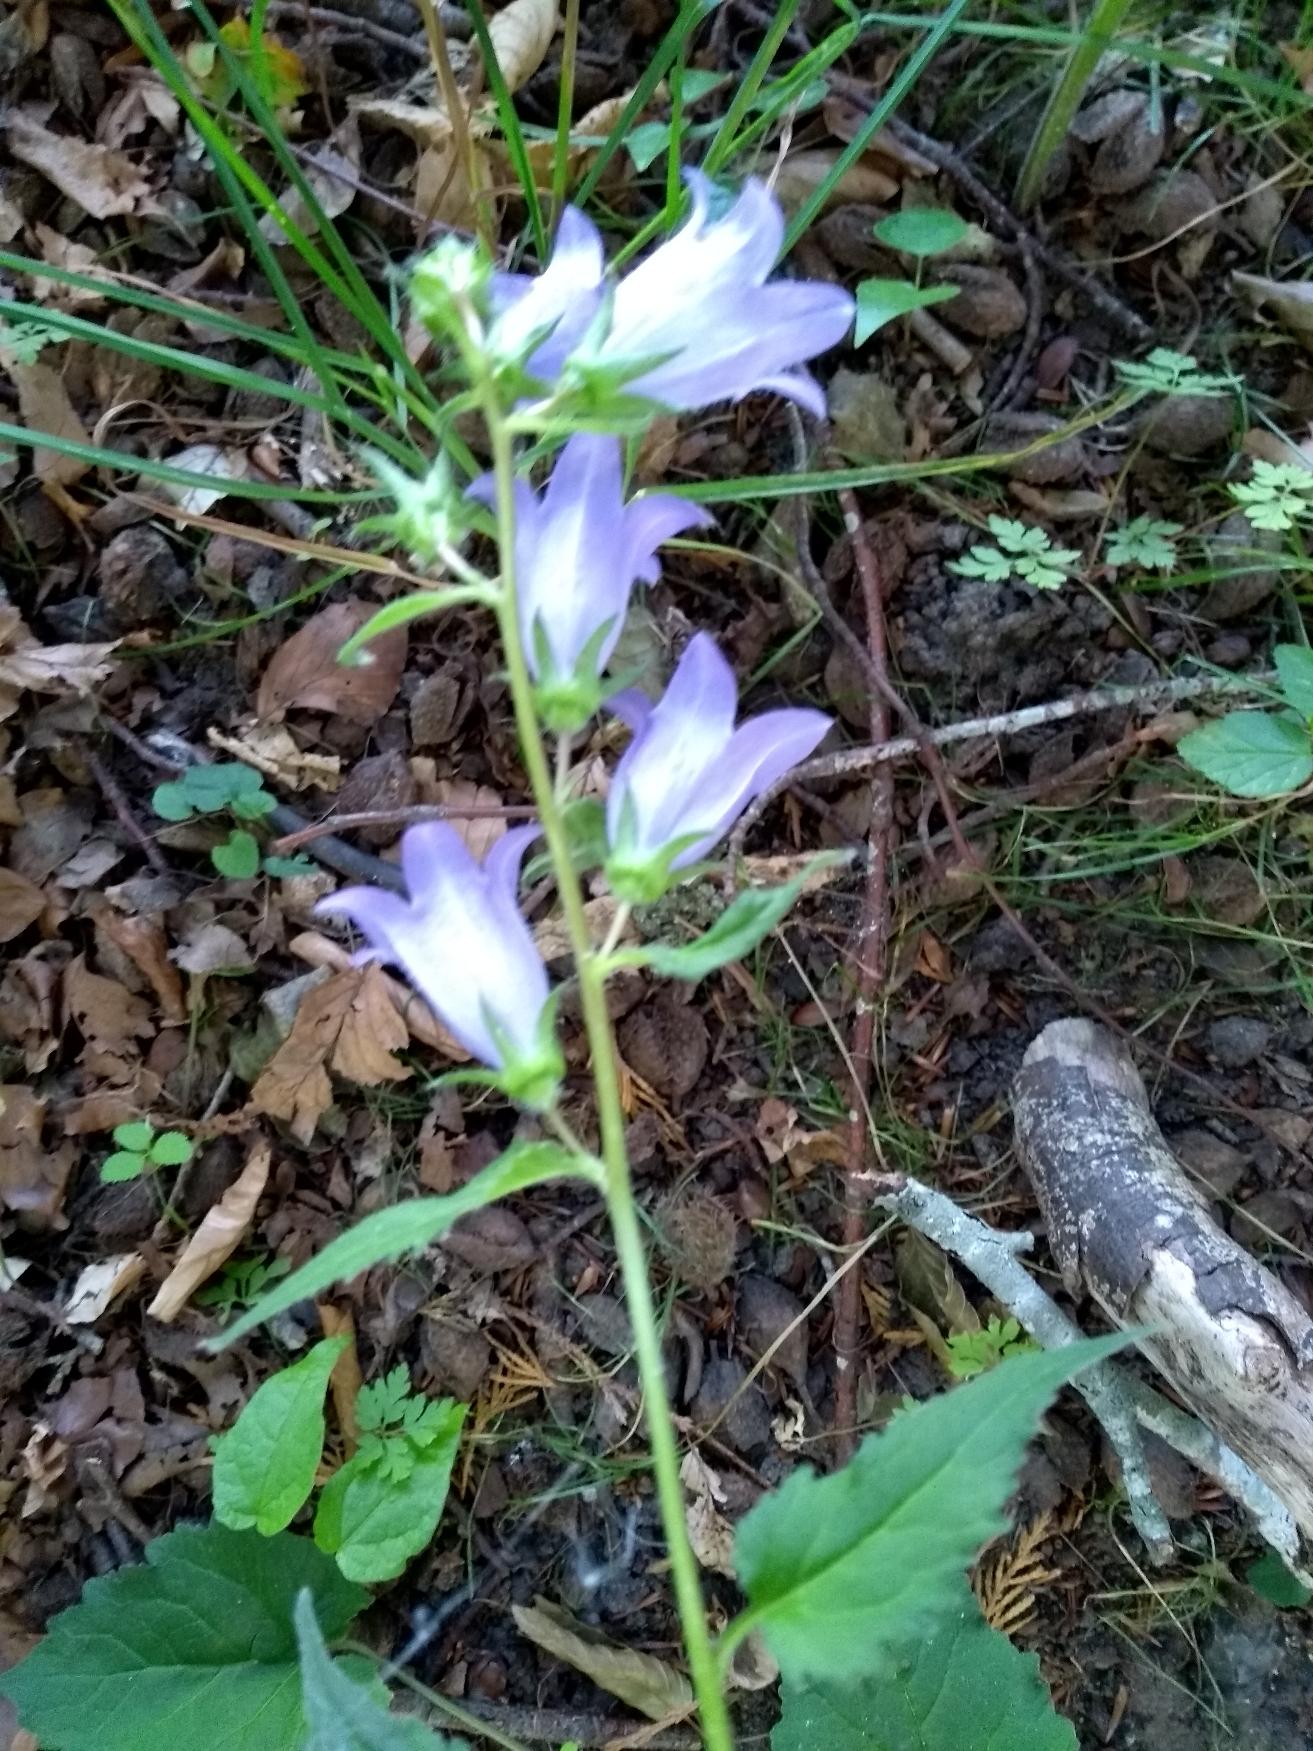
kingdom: Plantae
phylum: Tracheophyta
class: Magnoliopsida
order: Asterales
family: Campanulaceae
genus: Campanula
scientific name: Campanula trachelium
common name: Nælde-klokke
